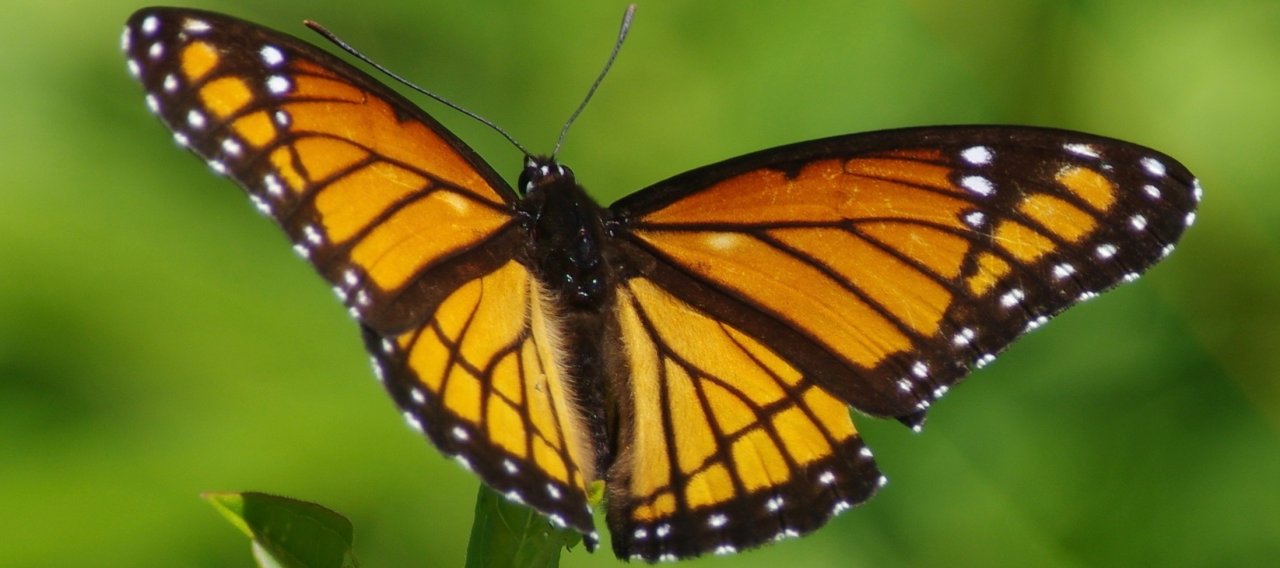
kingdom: Animalia
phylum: Arthropoda
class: Insecta
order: Lepidoptera
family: Nymphalidae
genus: Limenitis
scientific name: Limenitis archippus
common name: Viceroy
